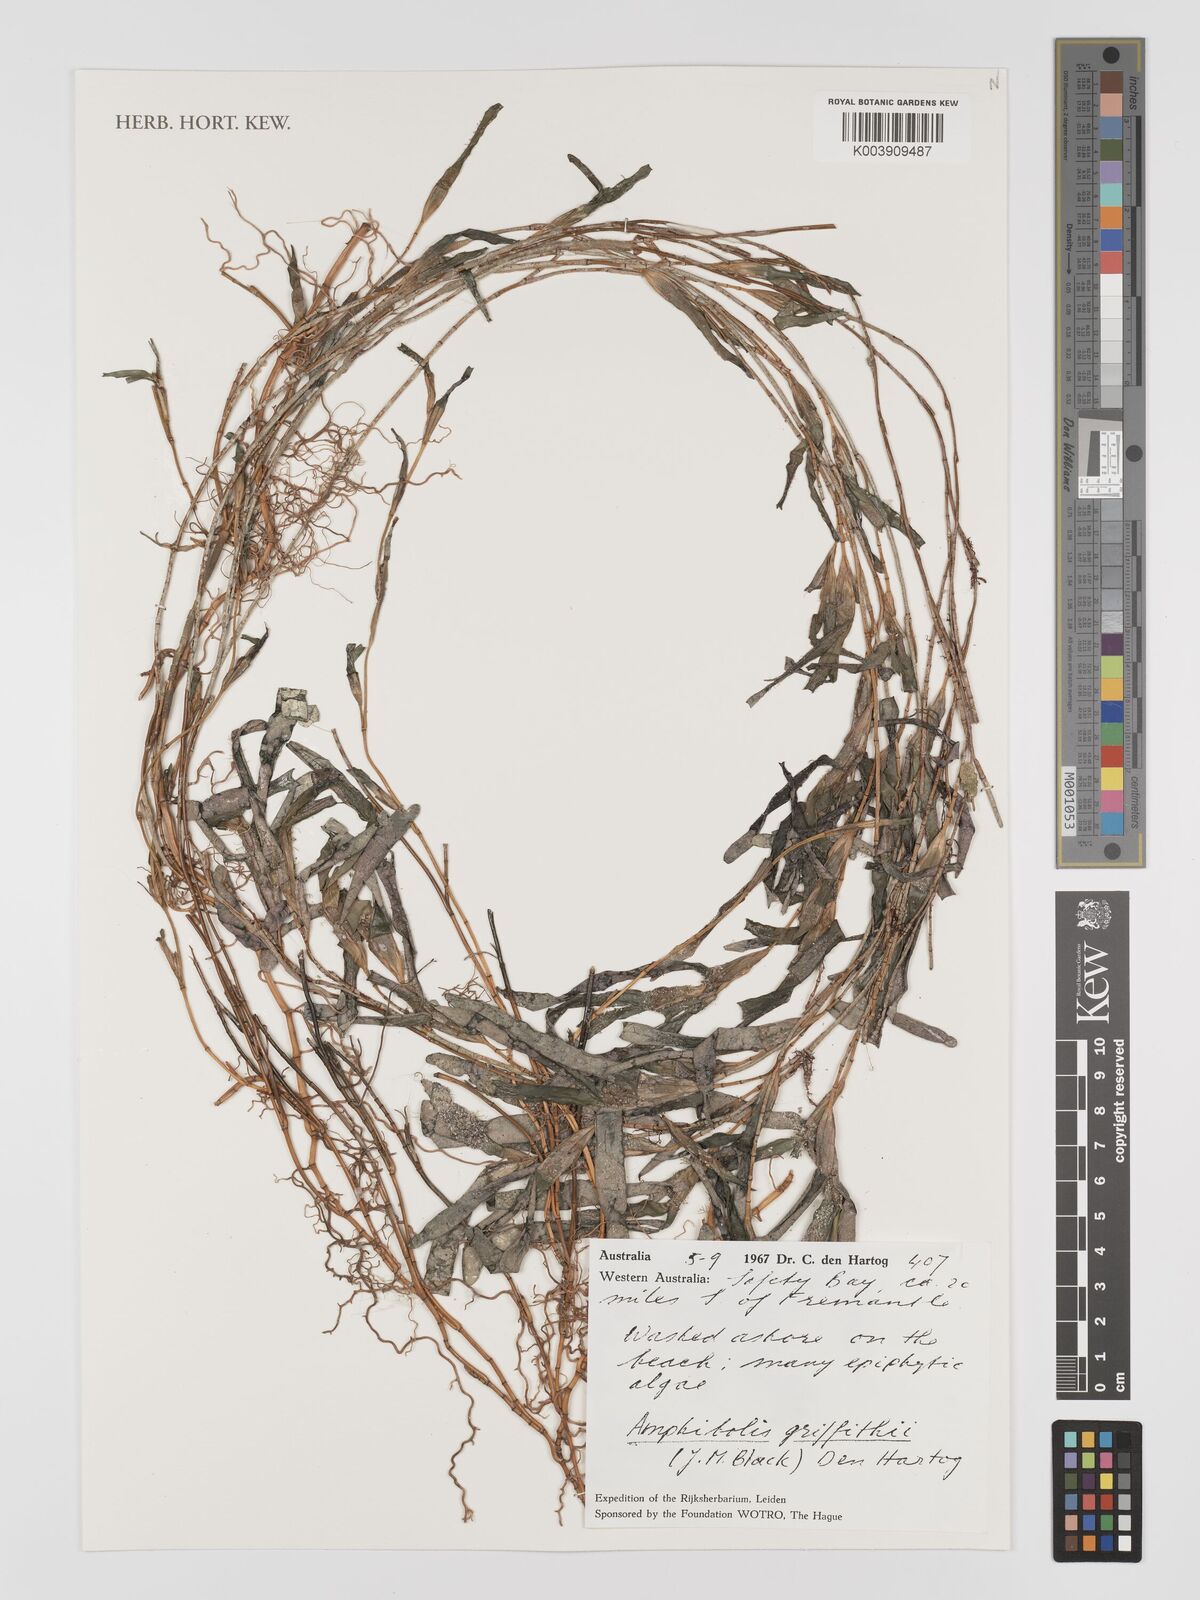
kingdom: Plantae
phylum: Tracheophyta
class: Liliopsida
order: Alismatales
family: Cymodoceaceae
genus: Amphibolis
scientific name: Amphibolis griffithii
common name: Species code: ag
